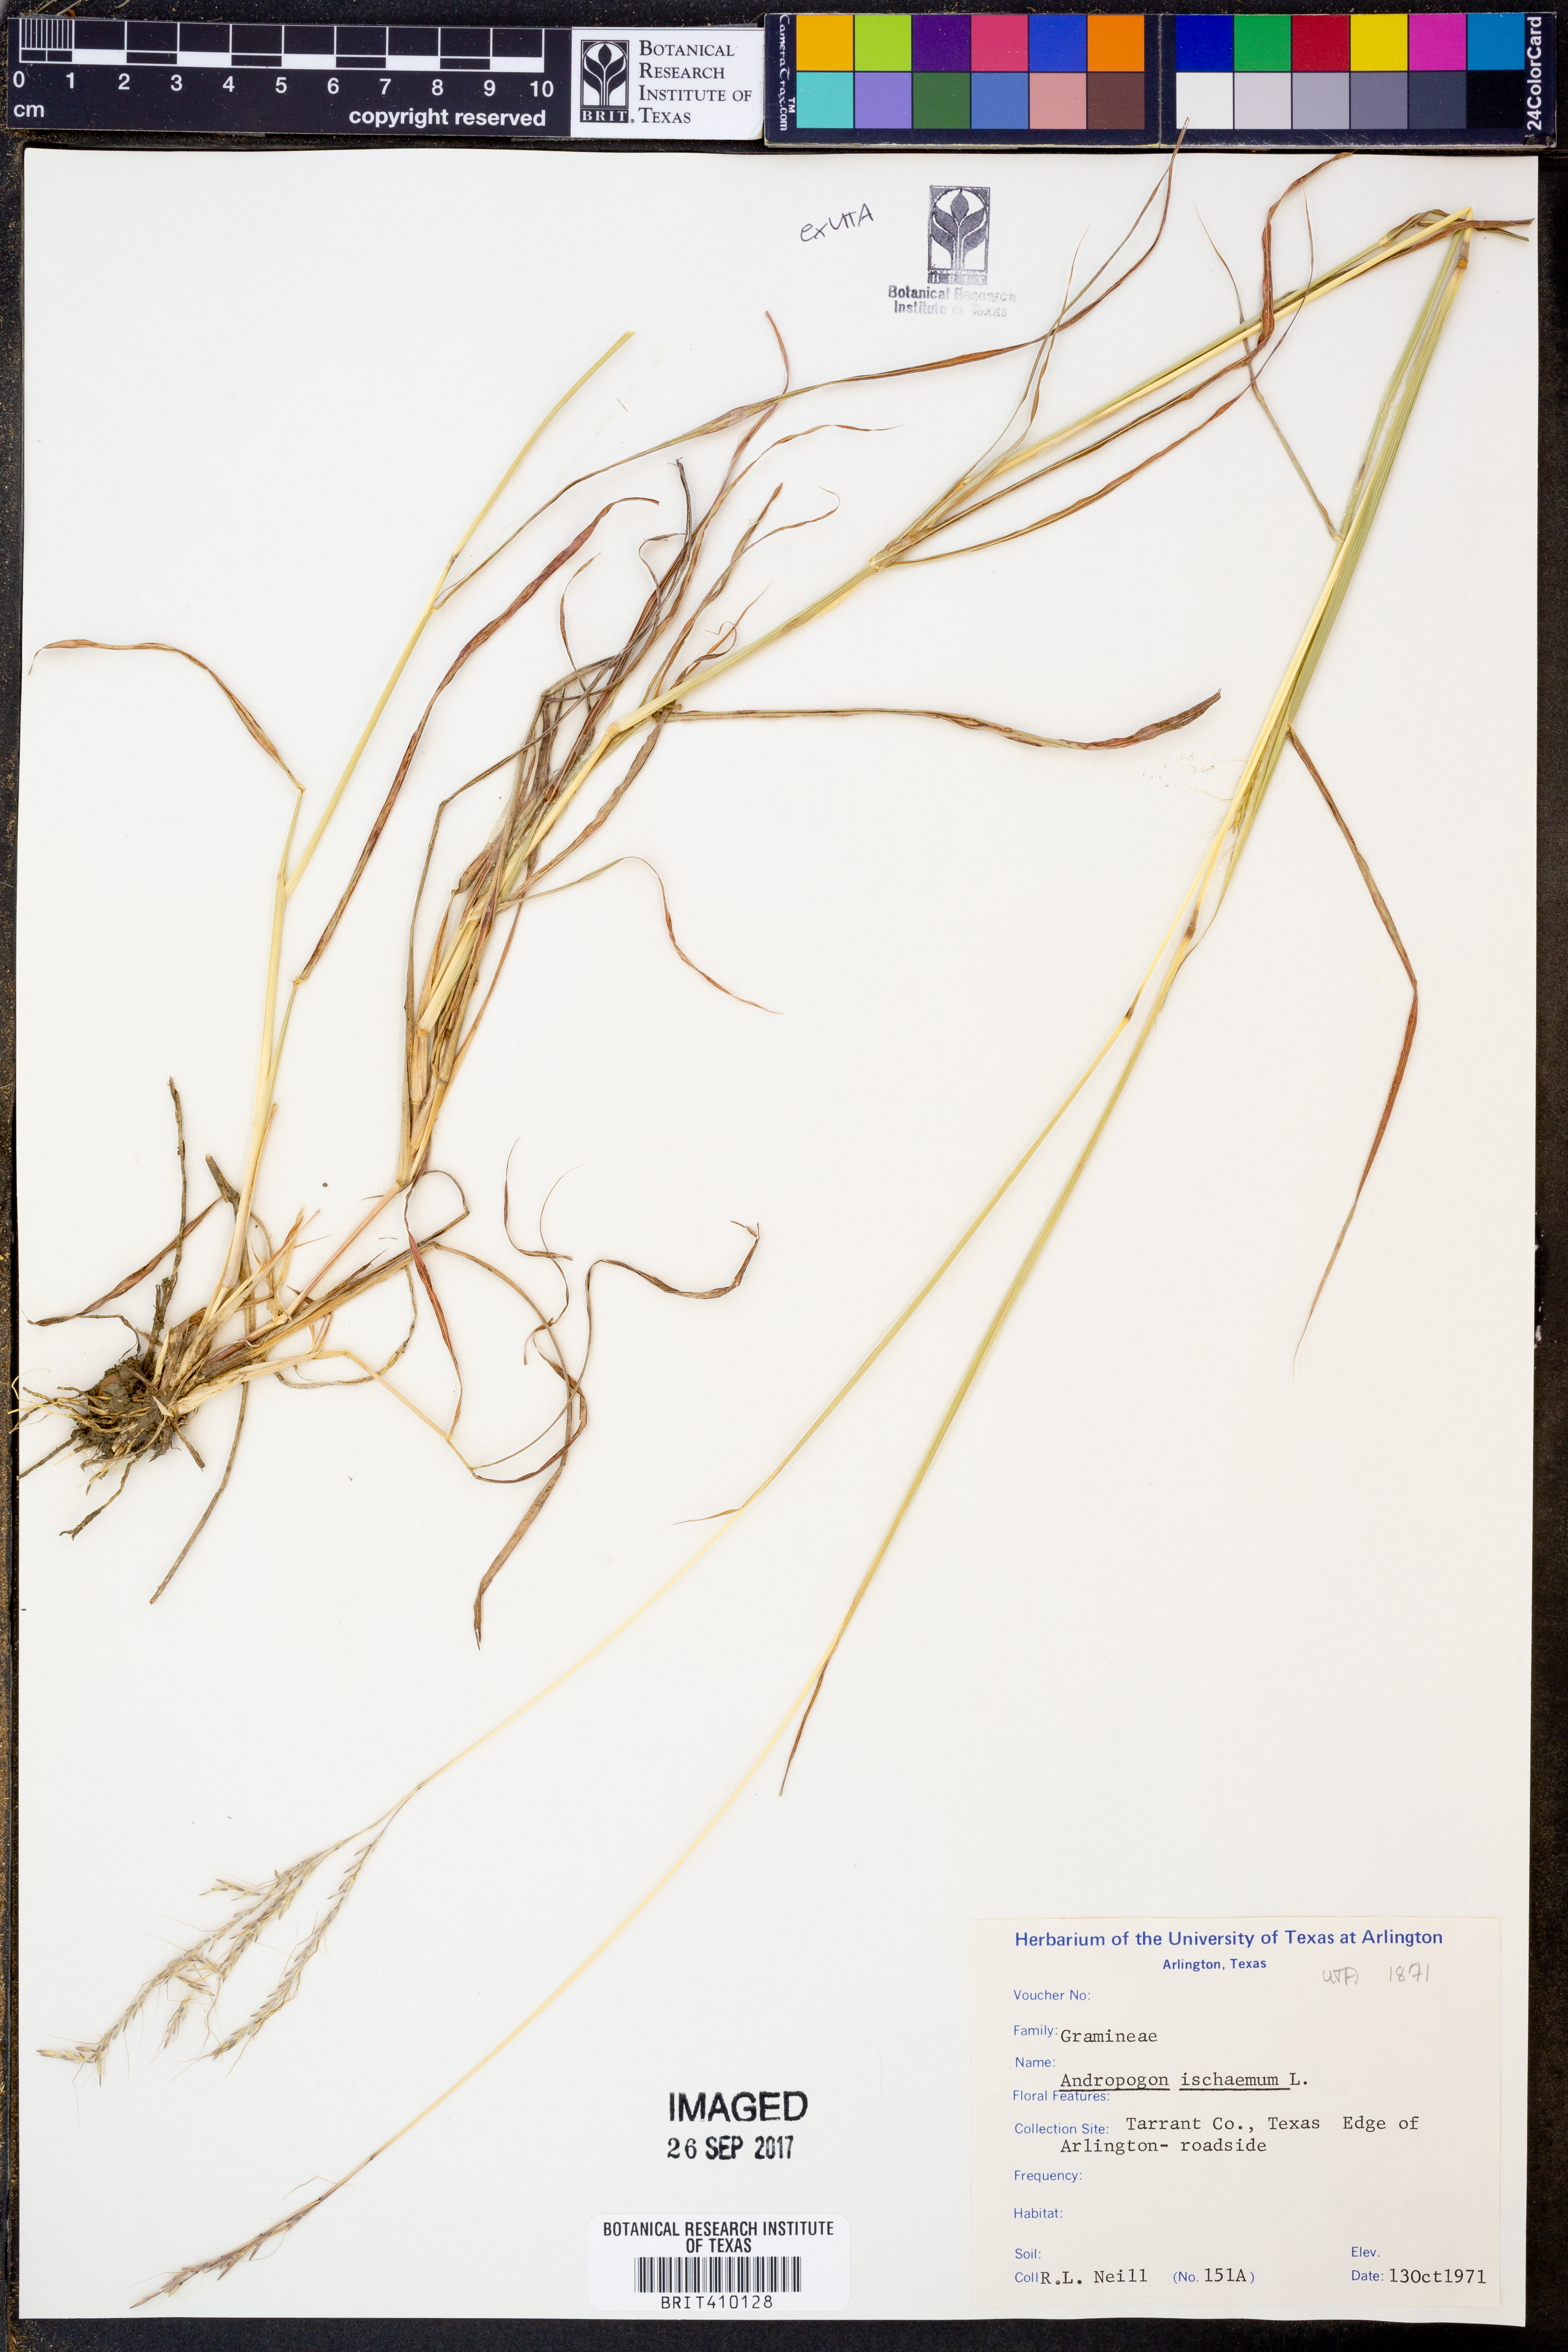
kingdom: Plantae
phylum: Tracheophyta
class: Liliopsida
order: Poales
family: Poaceae
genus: Andropogon
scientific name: Andropogon ischaemum
